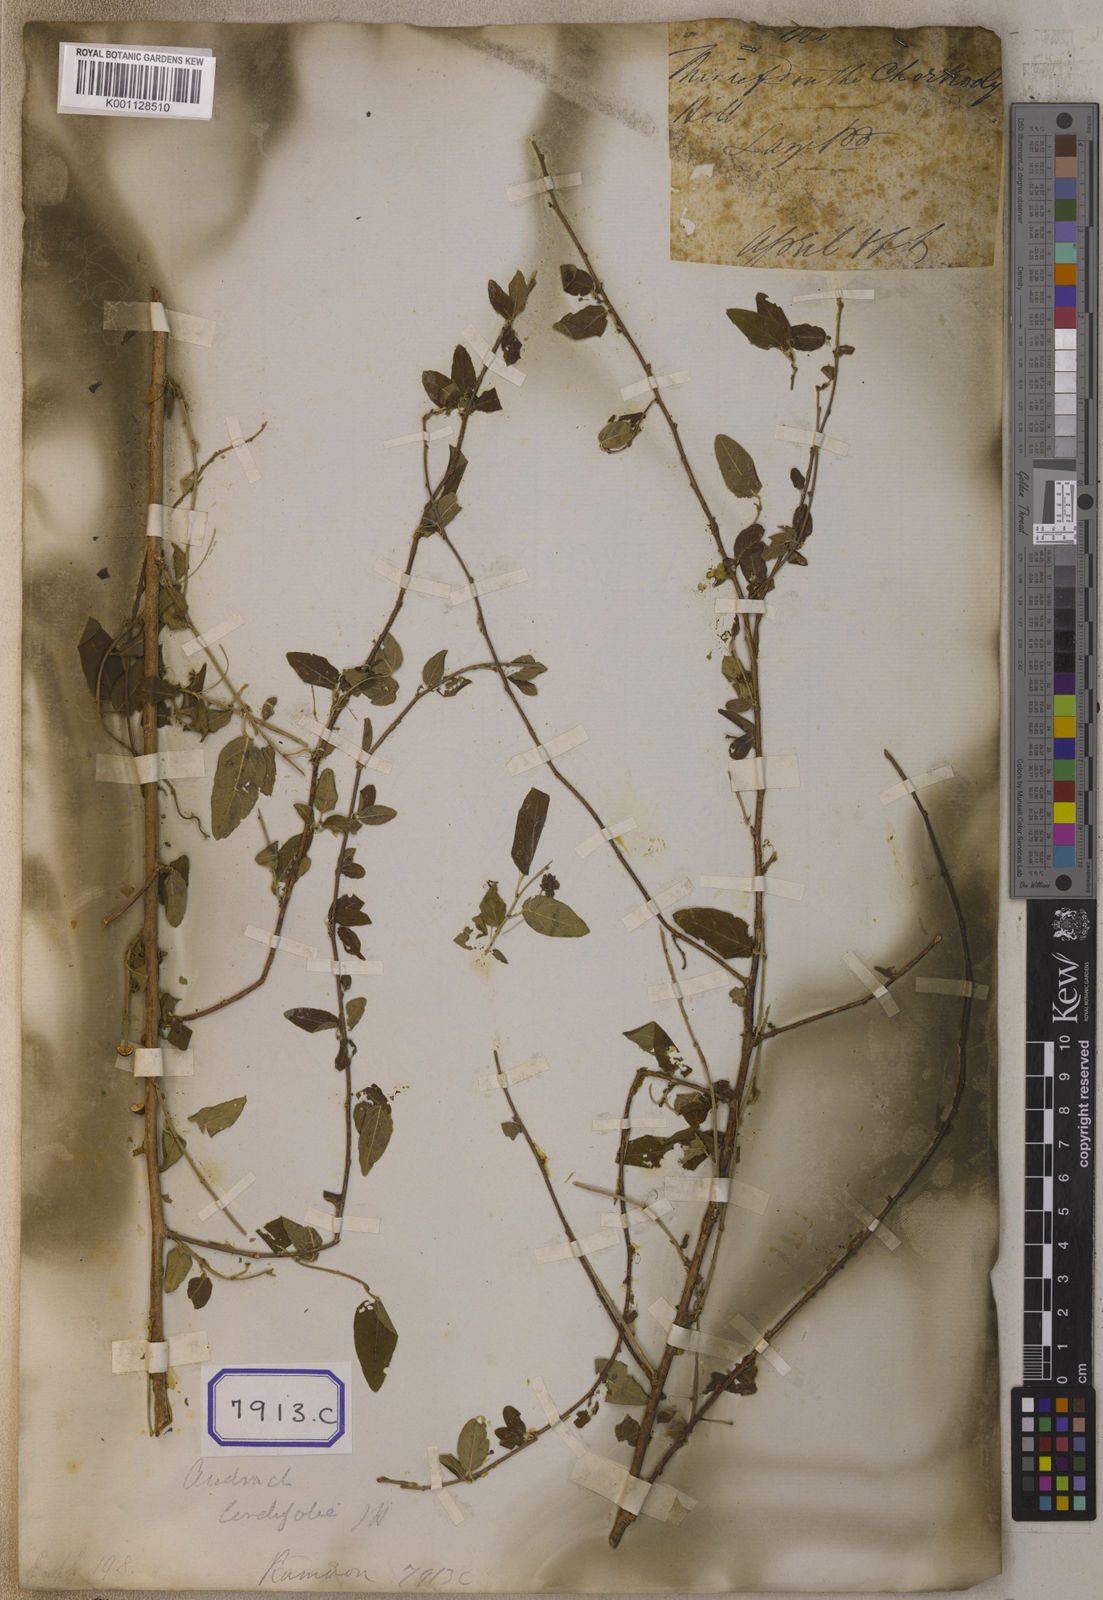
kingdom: Plantae
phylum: Tracheophyta
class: Magnoliopsida
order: Malpighiales
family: Euphorbiaceae
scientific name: Euphorbiaceae
